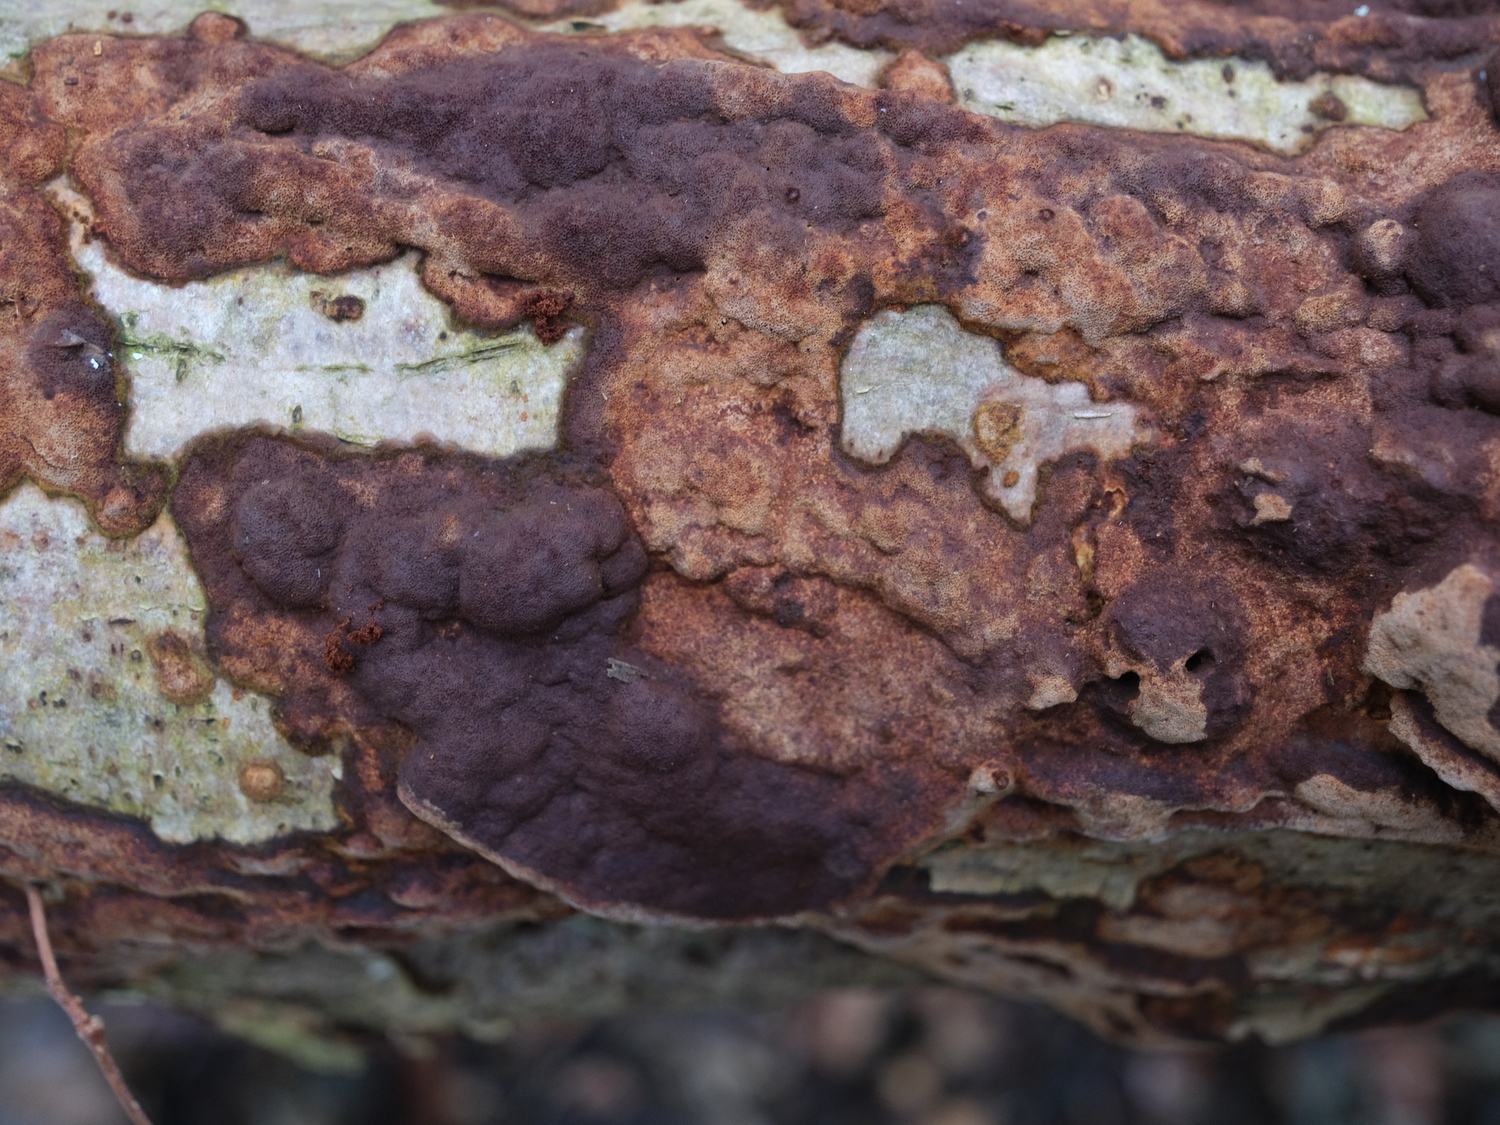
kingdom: Fungi
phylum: Basidiomycota
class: Agaricomycetes
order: Hymenochaetales
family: Hymenochaetaceae
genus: Fuscoporia
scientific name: Fuscoporia ferrea
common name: skorpe-ildporesvamp
